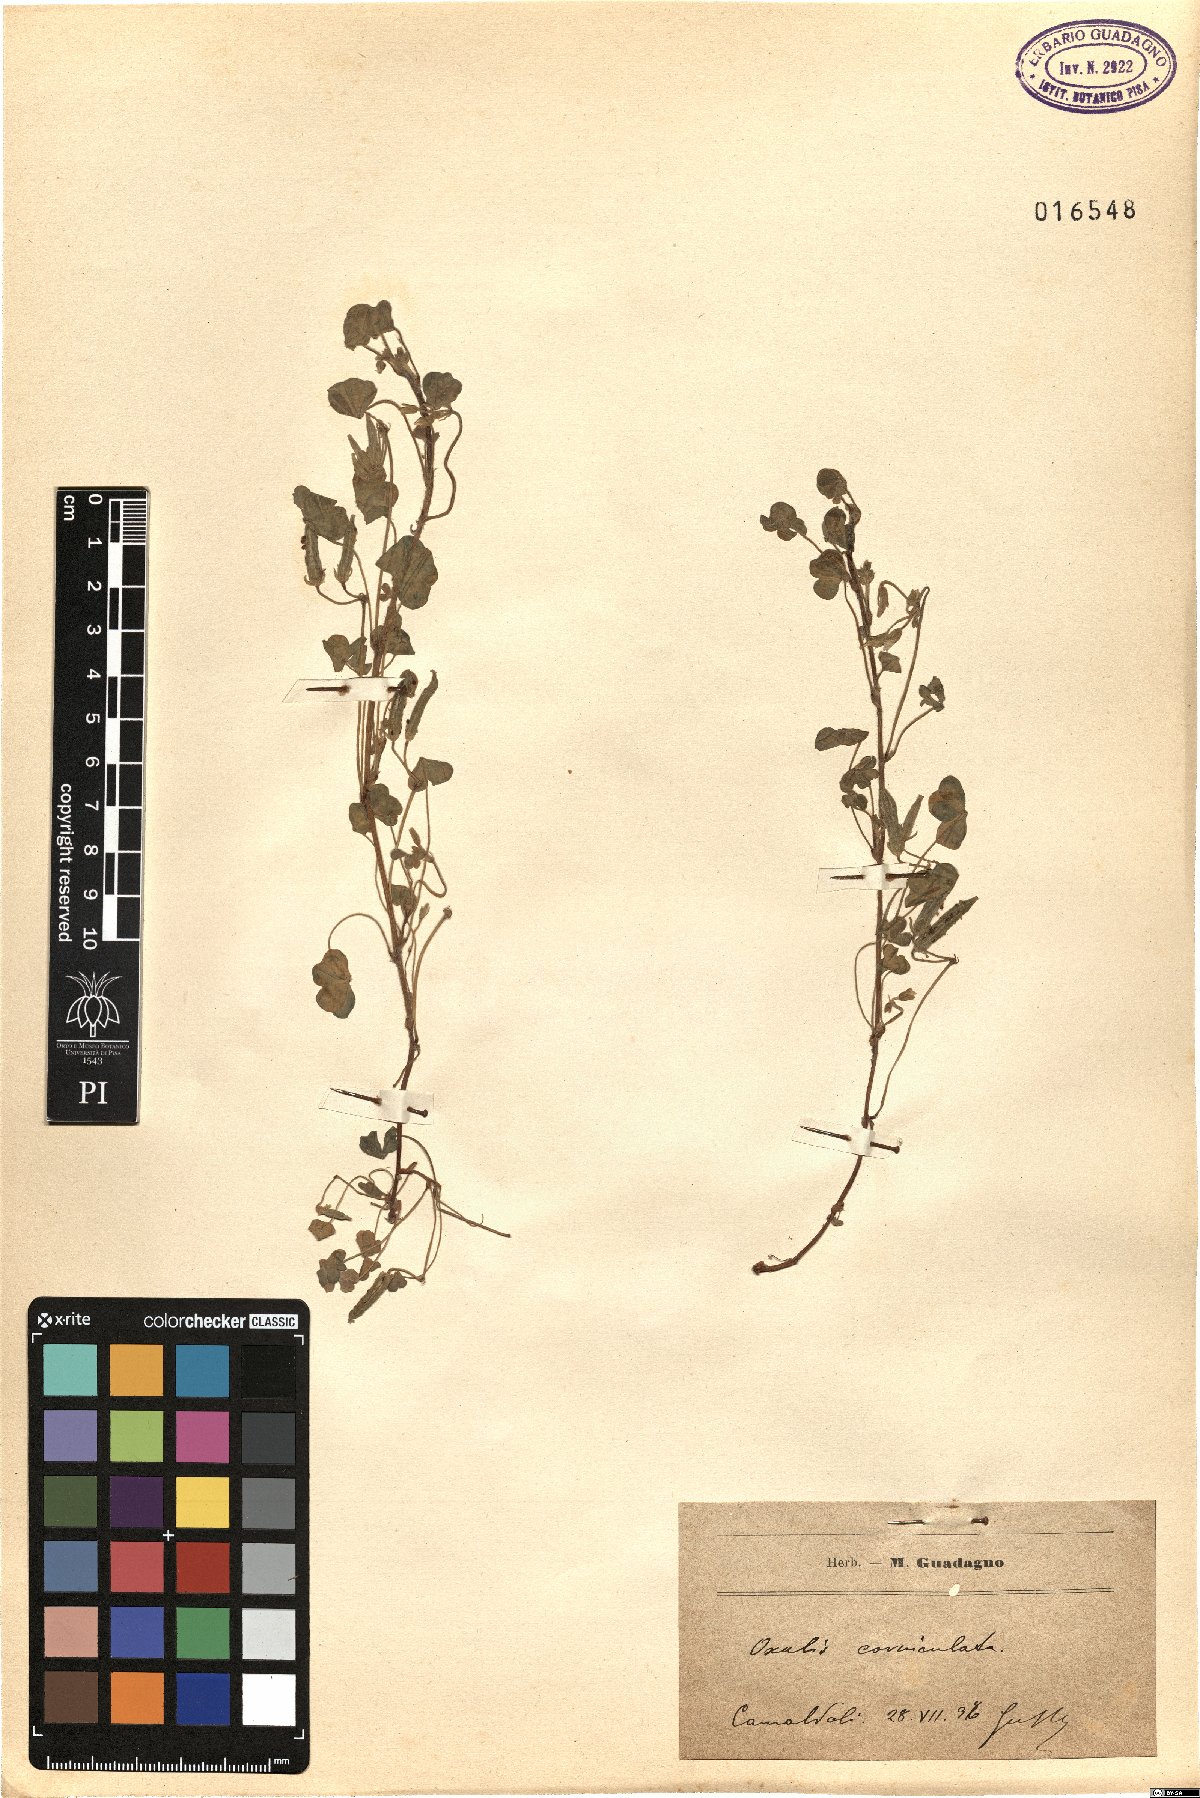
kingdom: Plantae
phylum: Tracheophyta
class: Magnoliopsida
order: Oxalidales
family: Oxalidaceae
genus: Oxalis
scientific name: Oxalis corniculata
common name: Procumbent yellow-sorrel
